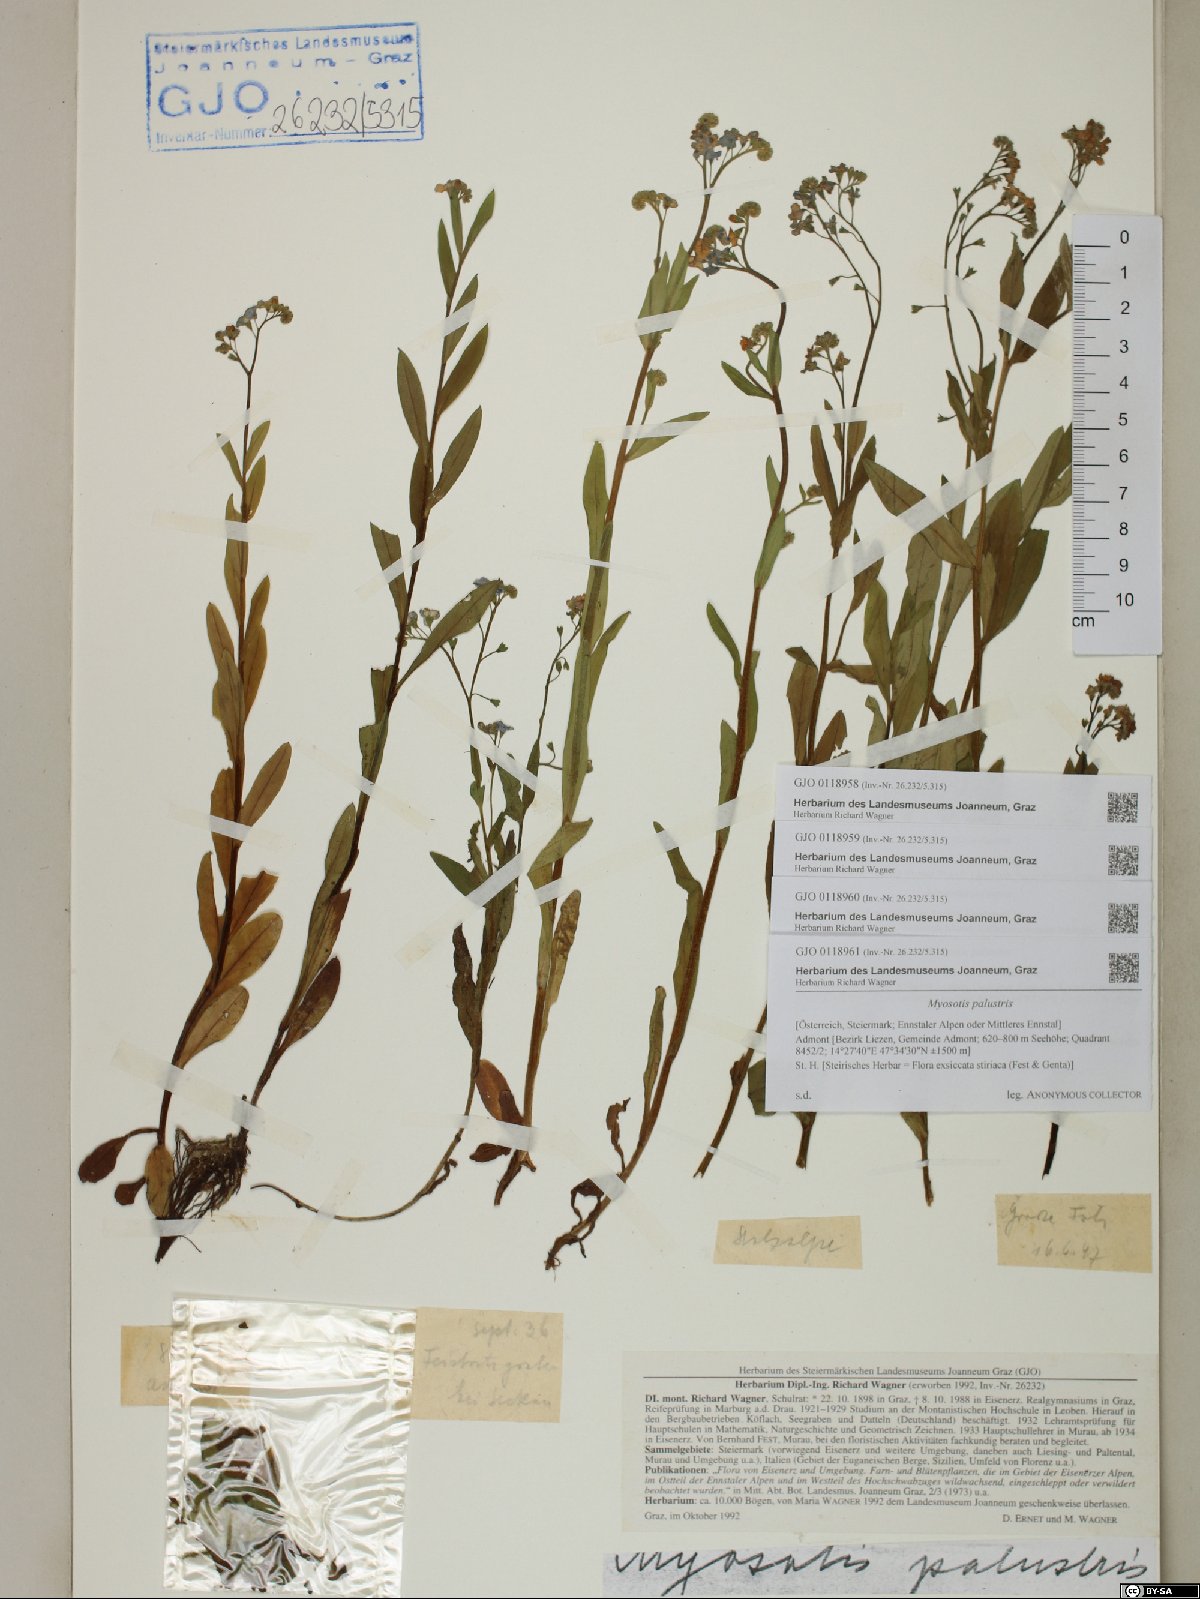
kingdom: Plantae
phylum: Tracheophyta
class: Magnoliopsida
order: Boraginales
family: Boraginaceae
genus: Myosotis
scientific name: Myosotis scorpioides
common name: Water forget-me-not
